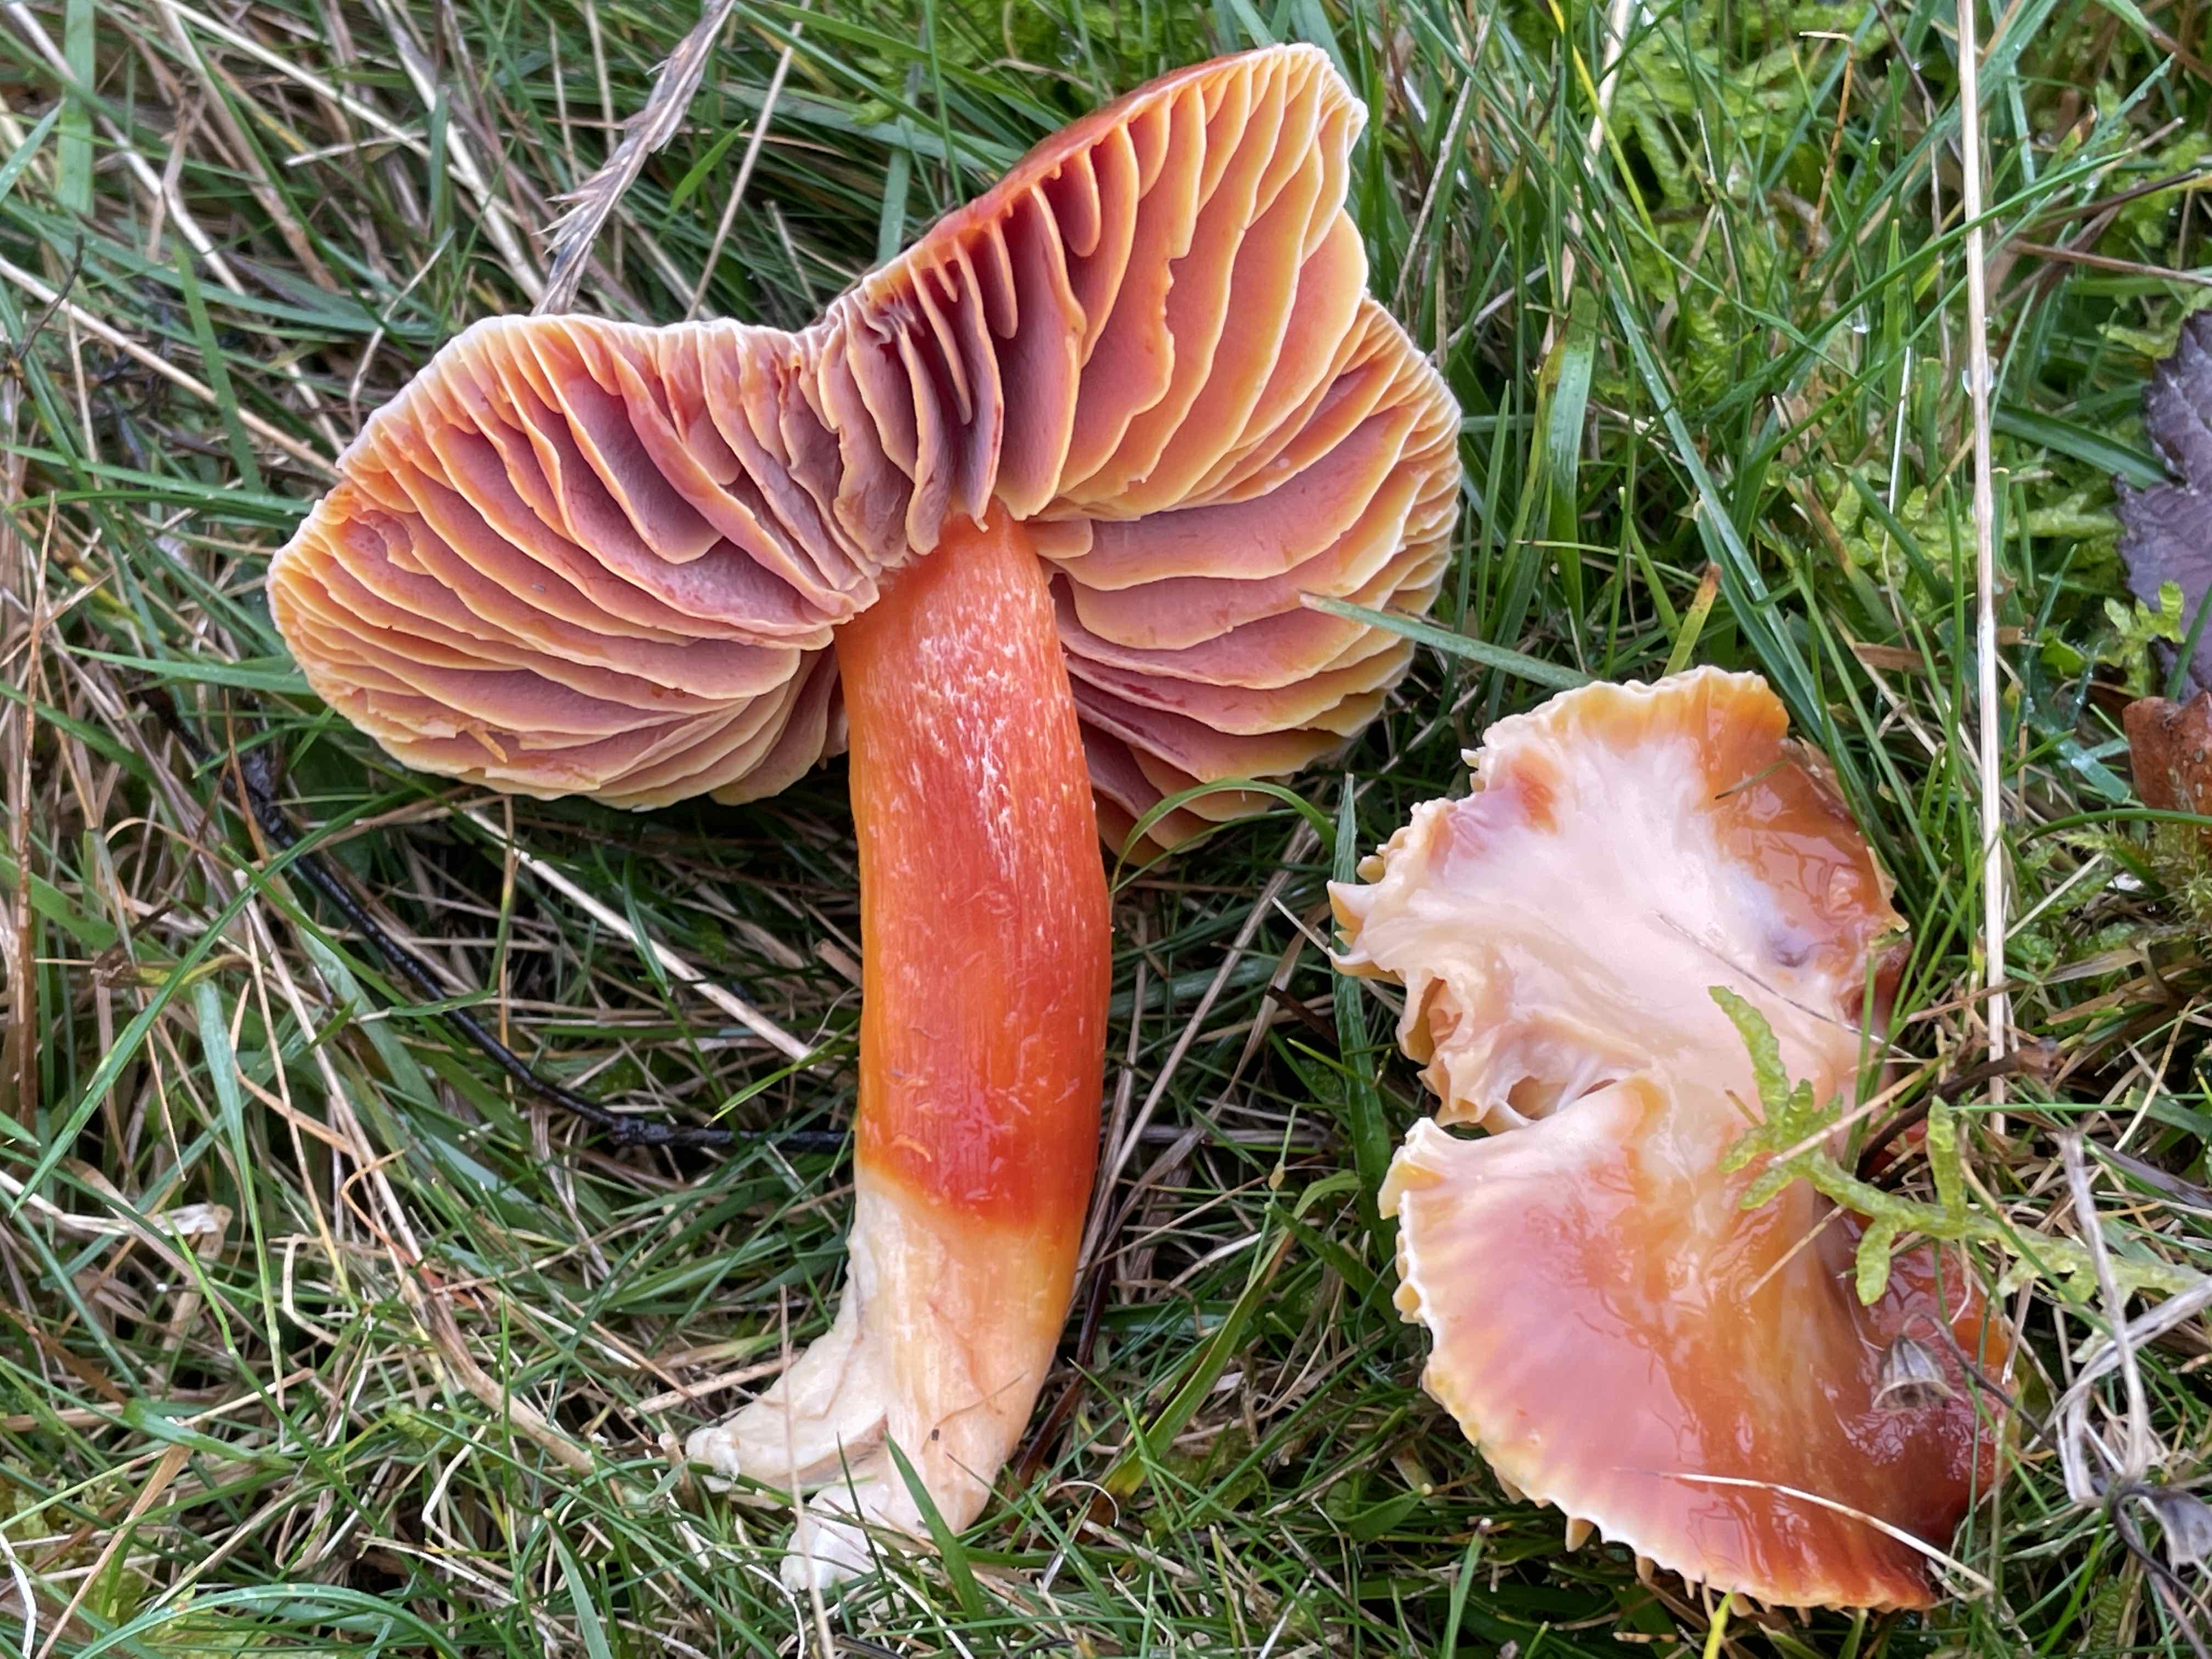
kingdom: Fungi
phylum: Basidiomycota
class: Agaricomycetes
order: Agaricales
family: Hygrophoraceae
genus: Hygrocybe
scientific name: Hygrocybe punicea
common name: skarlagen-vokshat
